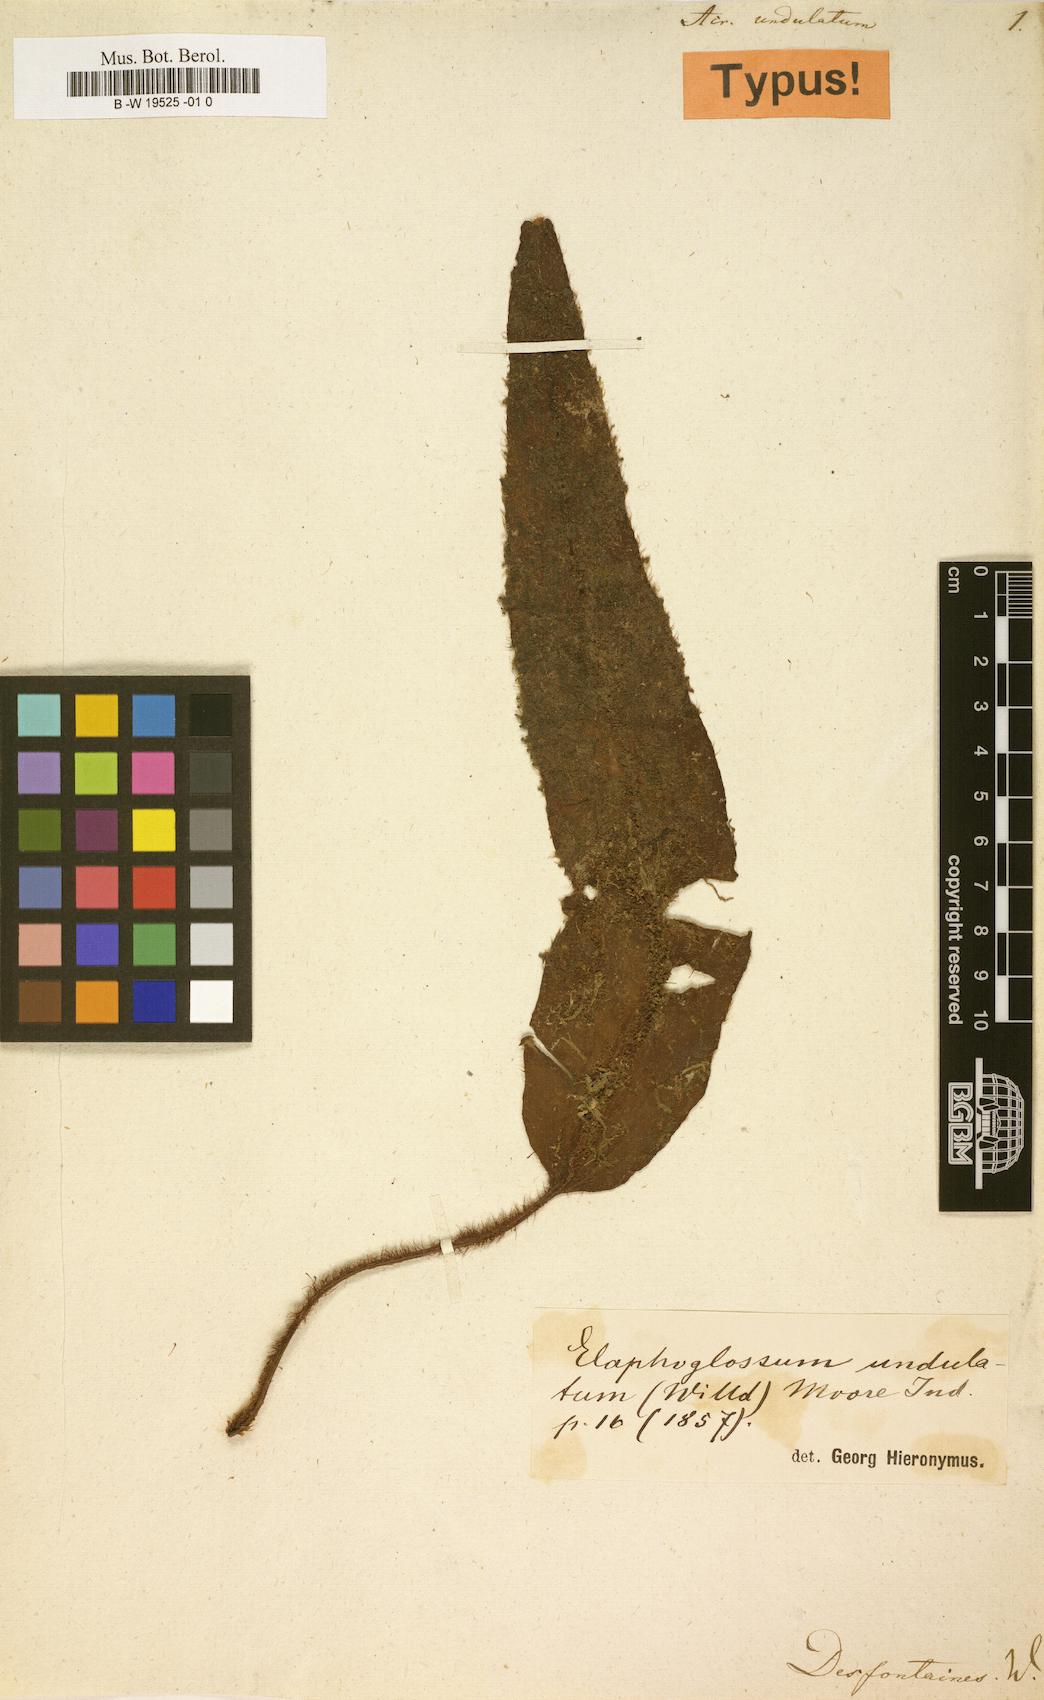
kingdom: Plantae
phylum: Tracheophyta
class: Polypodiopsida
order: Polypodiales
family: Dryopteridaceae
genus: Elaphoglossum
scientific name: Elaphoglossum eutecnum
